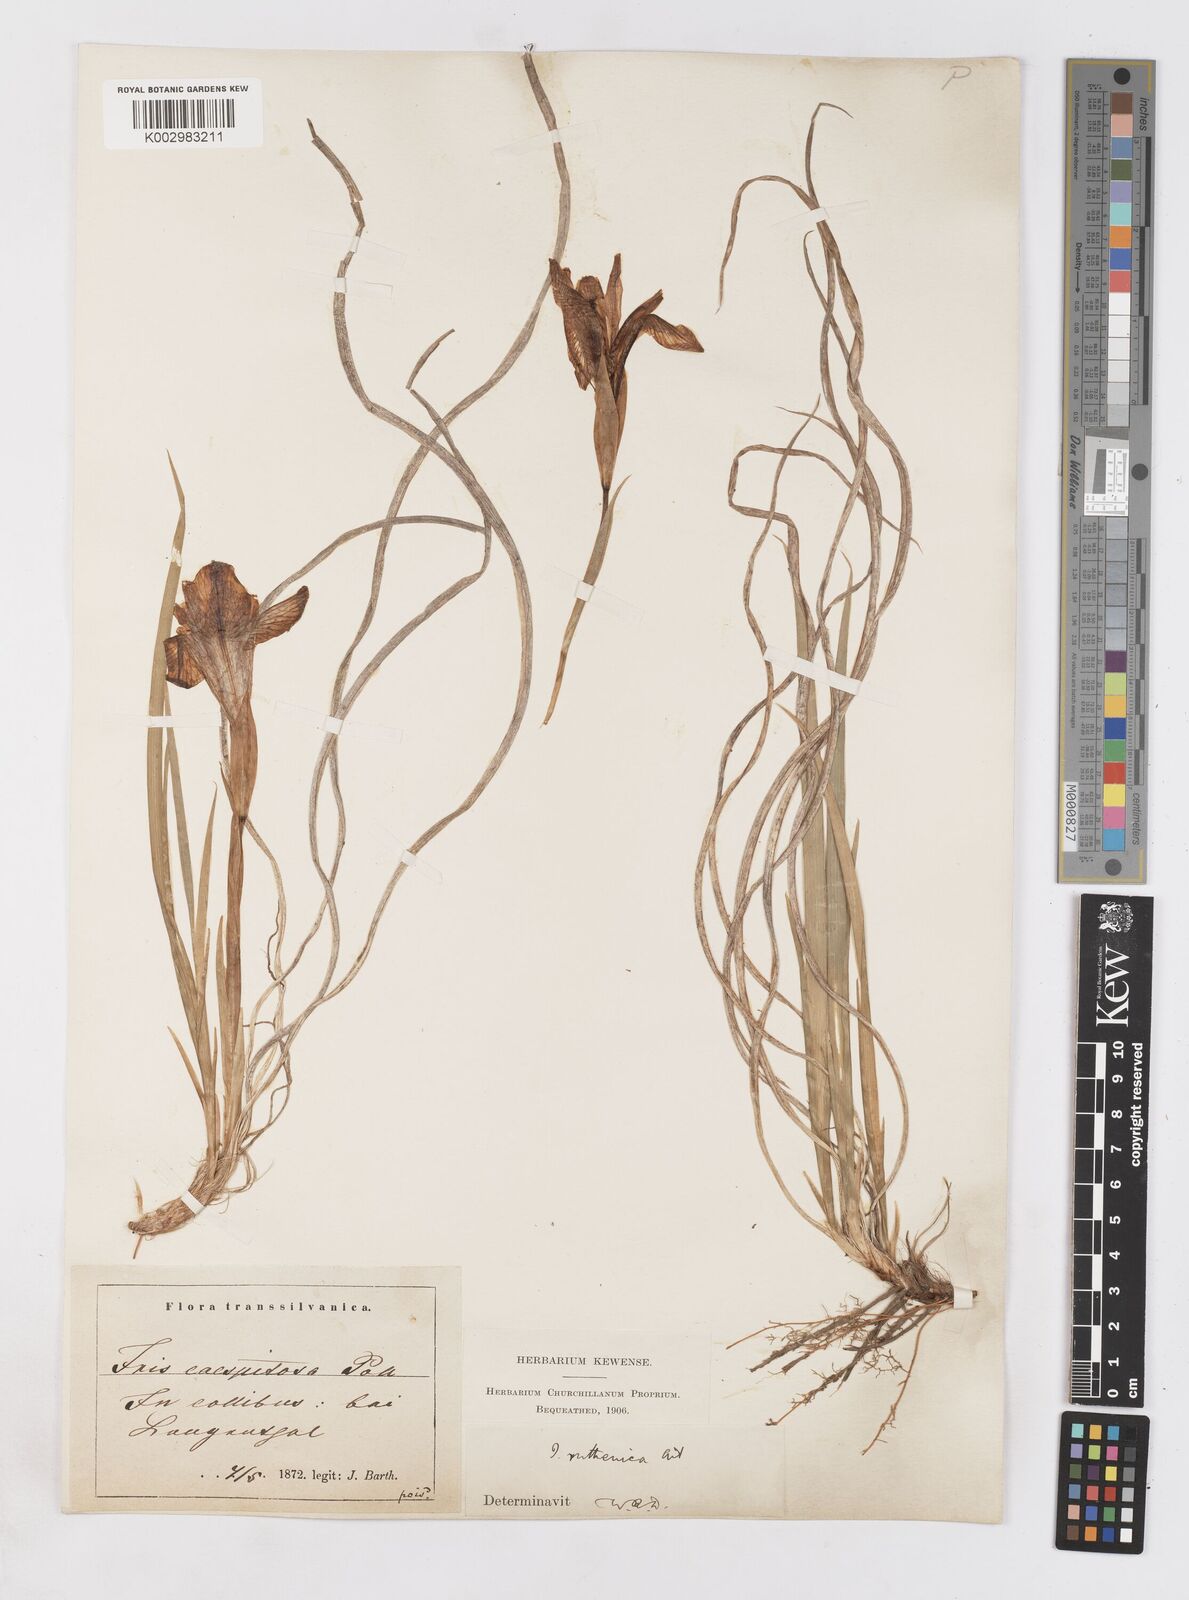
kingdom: Plantae
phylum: Tracheophyta
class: Liliopsida
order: Asparagales
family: Iridaceae
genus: Iris
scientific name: Iris ruthenica
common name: Purple-bract iris
